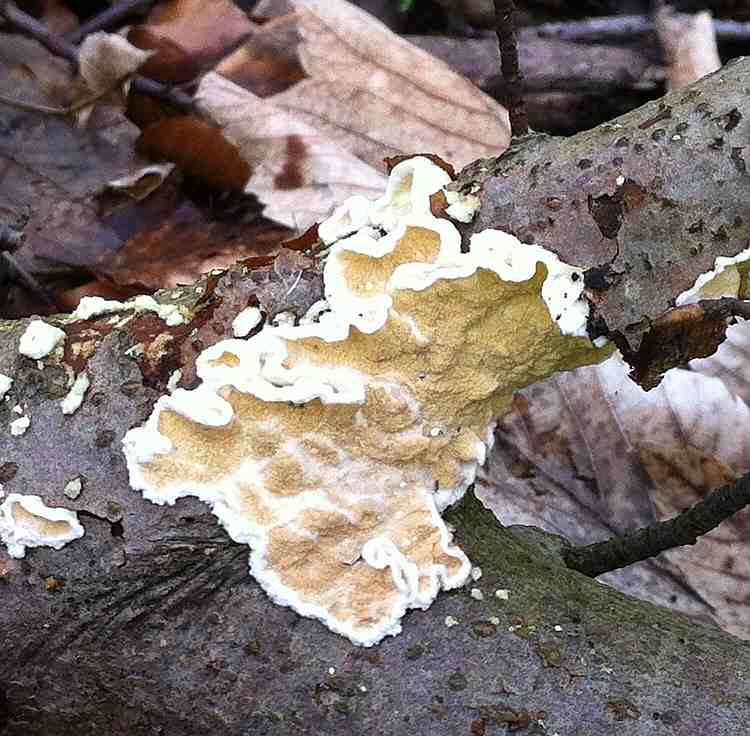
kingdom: Fungi
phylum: Basidiomycota
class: Agaricomycetes
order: Polyporales
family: Irpicaceae
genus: Byssomerulius
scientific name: Byssomerulius corium
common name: læder-åresvamp
